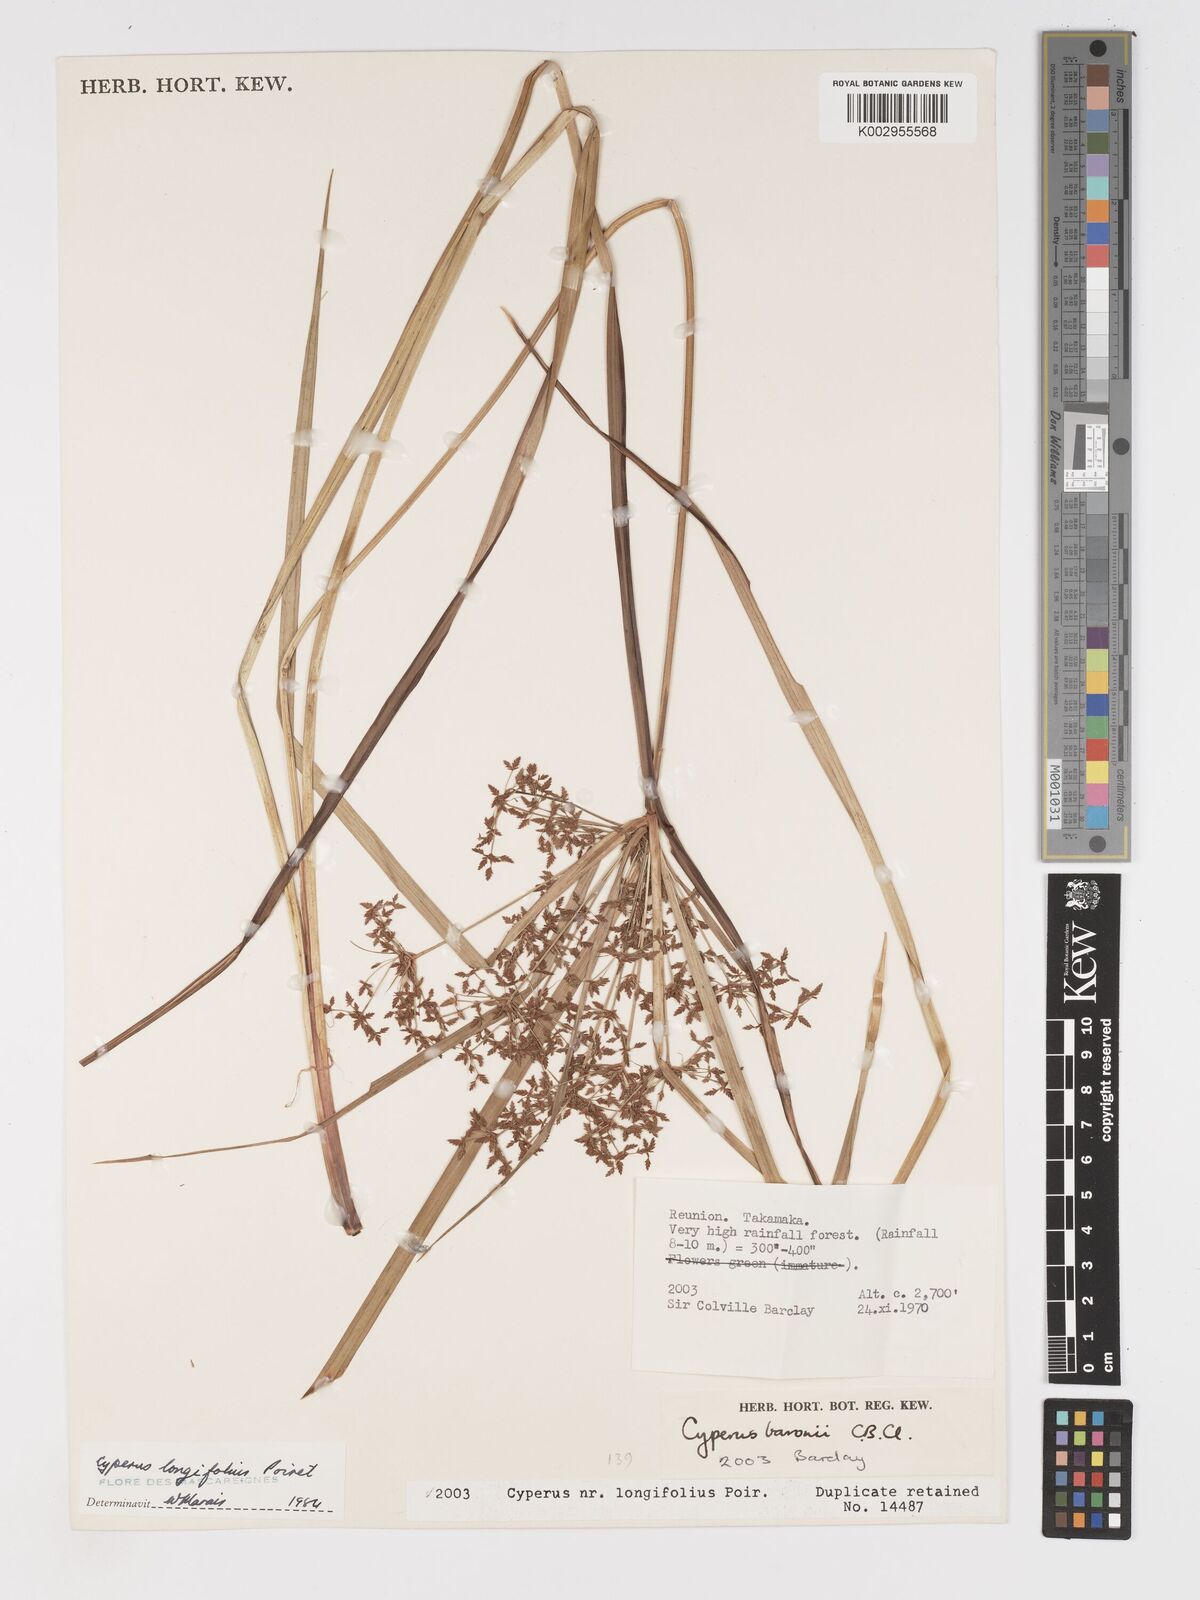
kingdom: Plantae
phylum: Tracheophyta
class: Liliopsida
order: Poales
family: Cyperaceae
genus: Cyperus
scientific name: Cyperus longifolius
